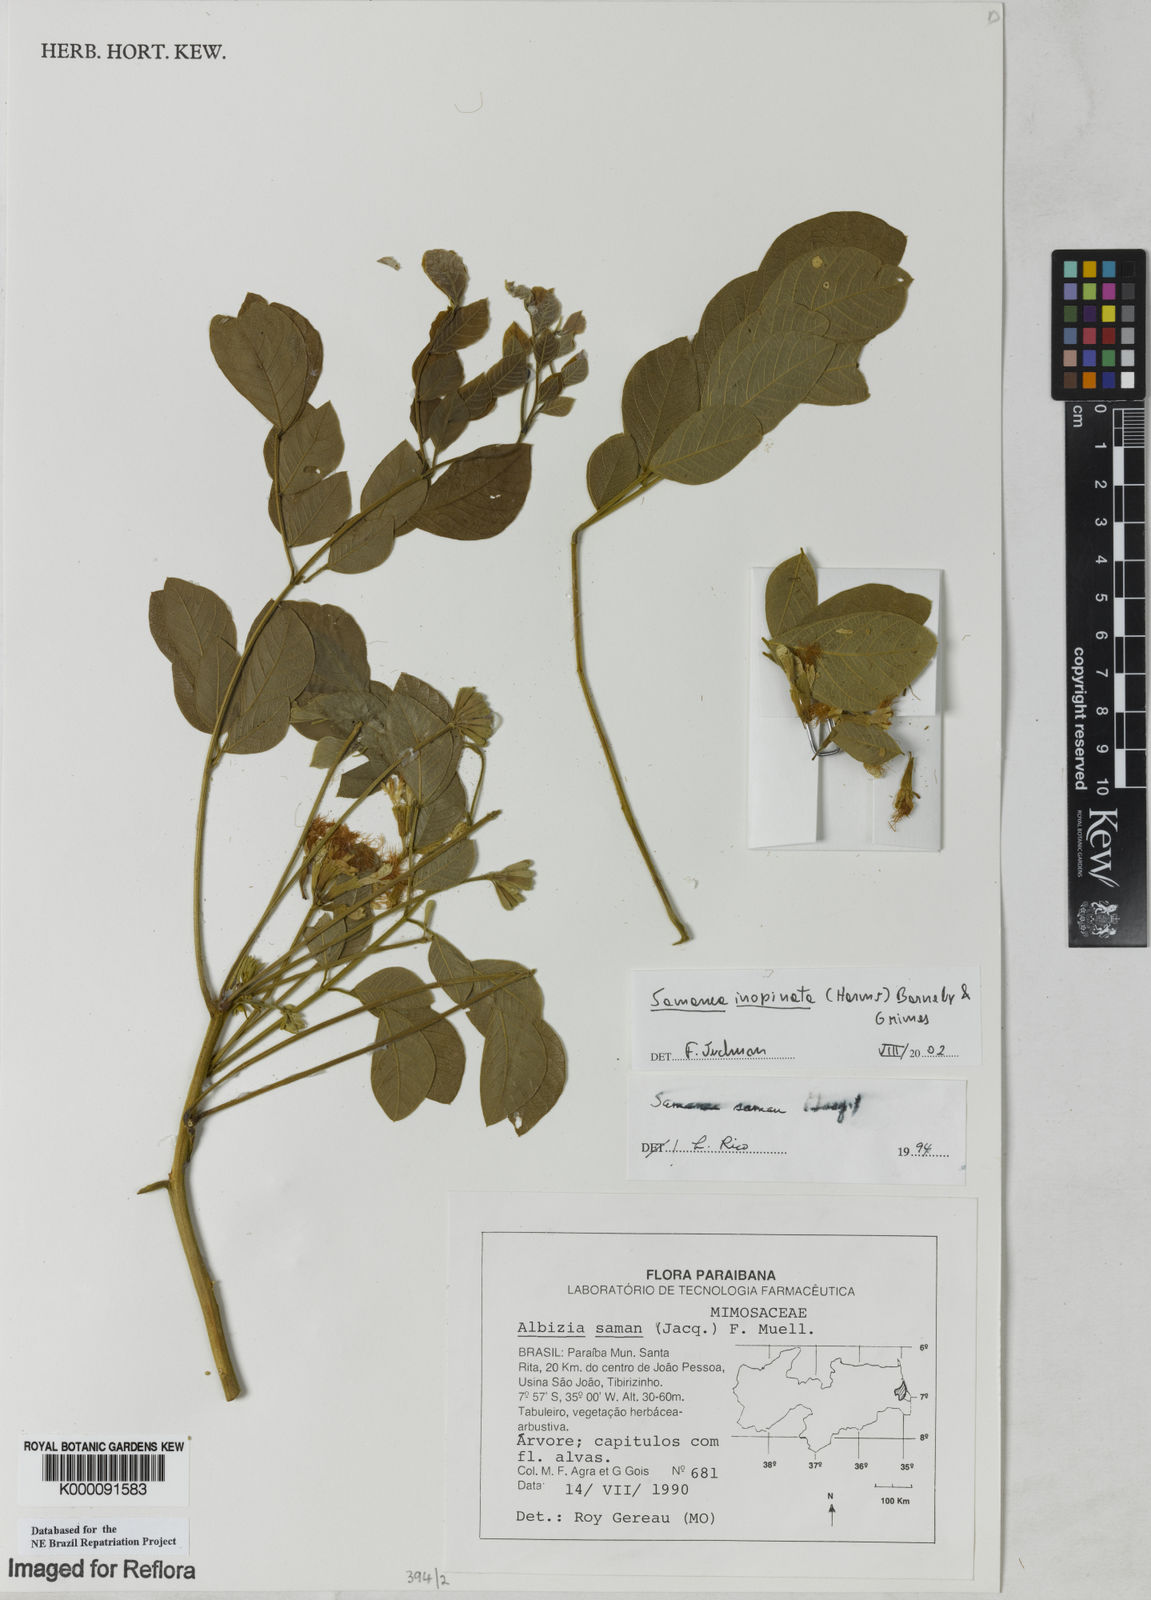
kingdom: Plantae
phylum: Tracheophyta
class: Magnoliopsida
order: Fabales
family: Fabaceae
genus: Samanea
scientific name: Samanea inopinata
